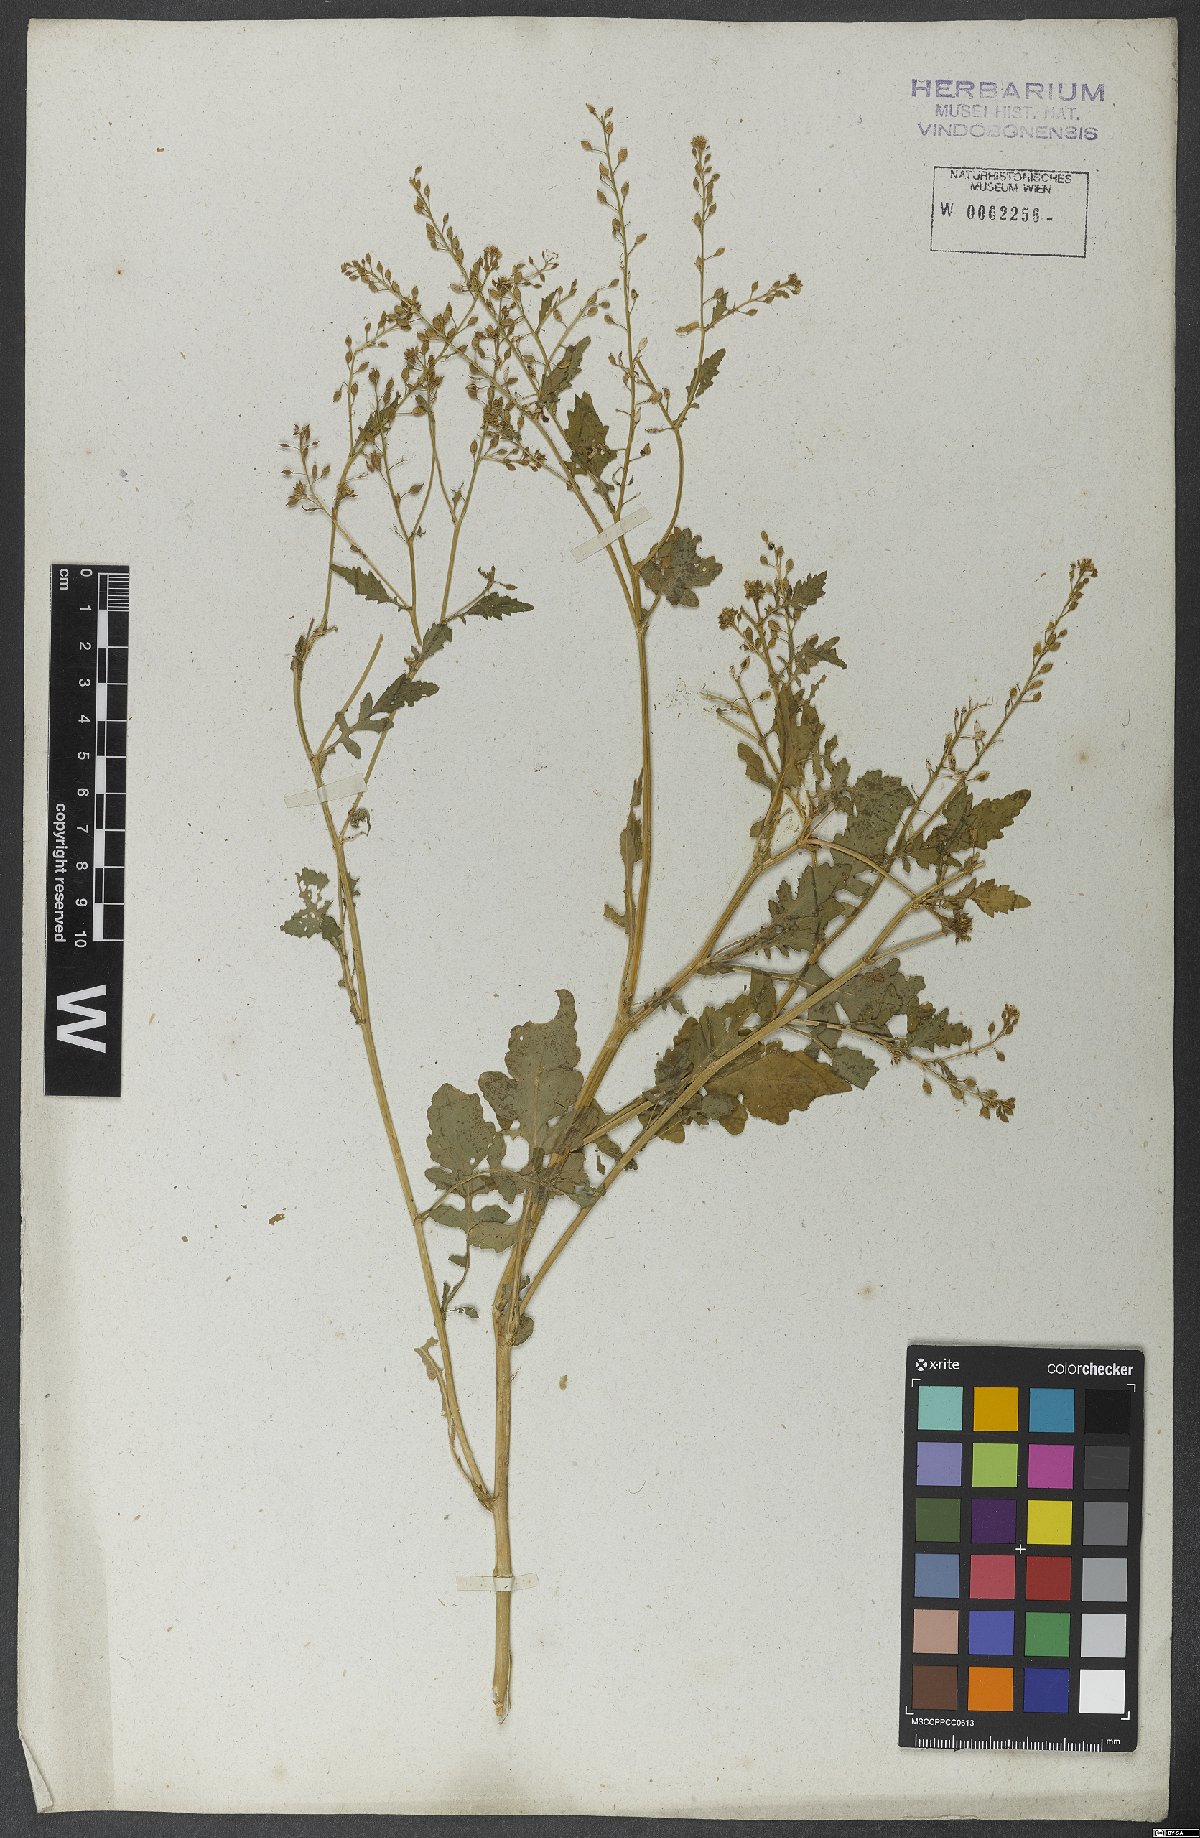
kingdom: Plantae
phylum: Tracheophyta
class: Magnoliopsida
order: Brassicales
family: Brassicaceae
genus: Rorippa
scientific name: Rorippa palustris
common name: Marsh yellow-cress
